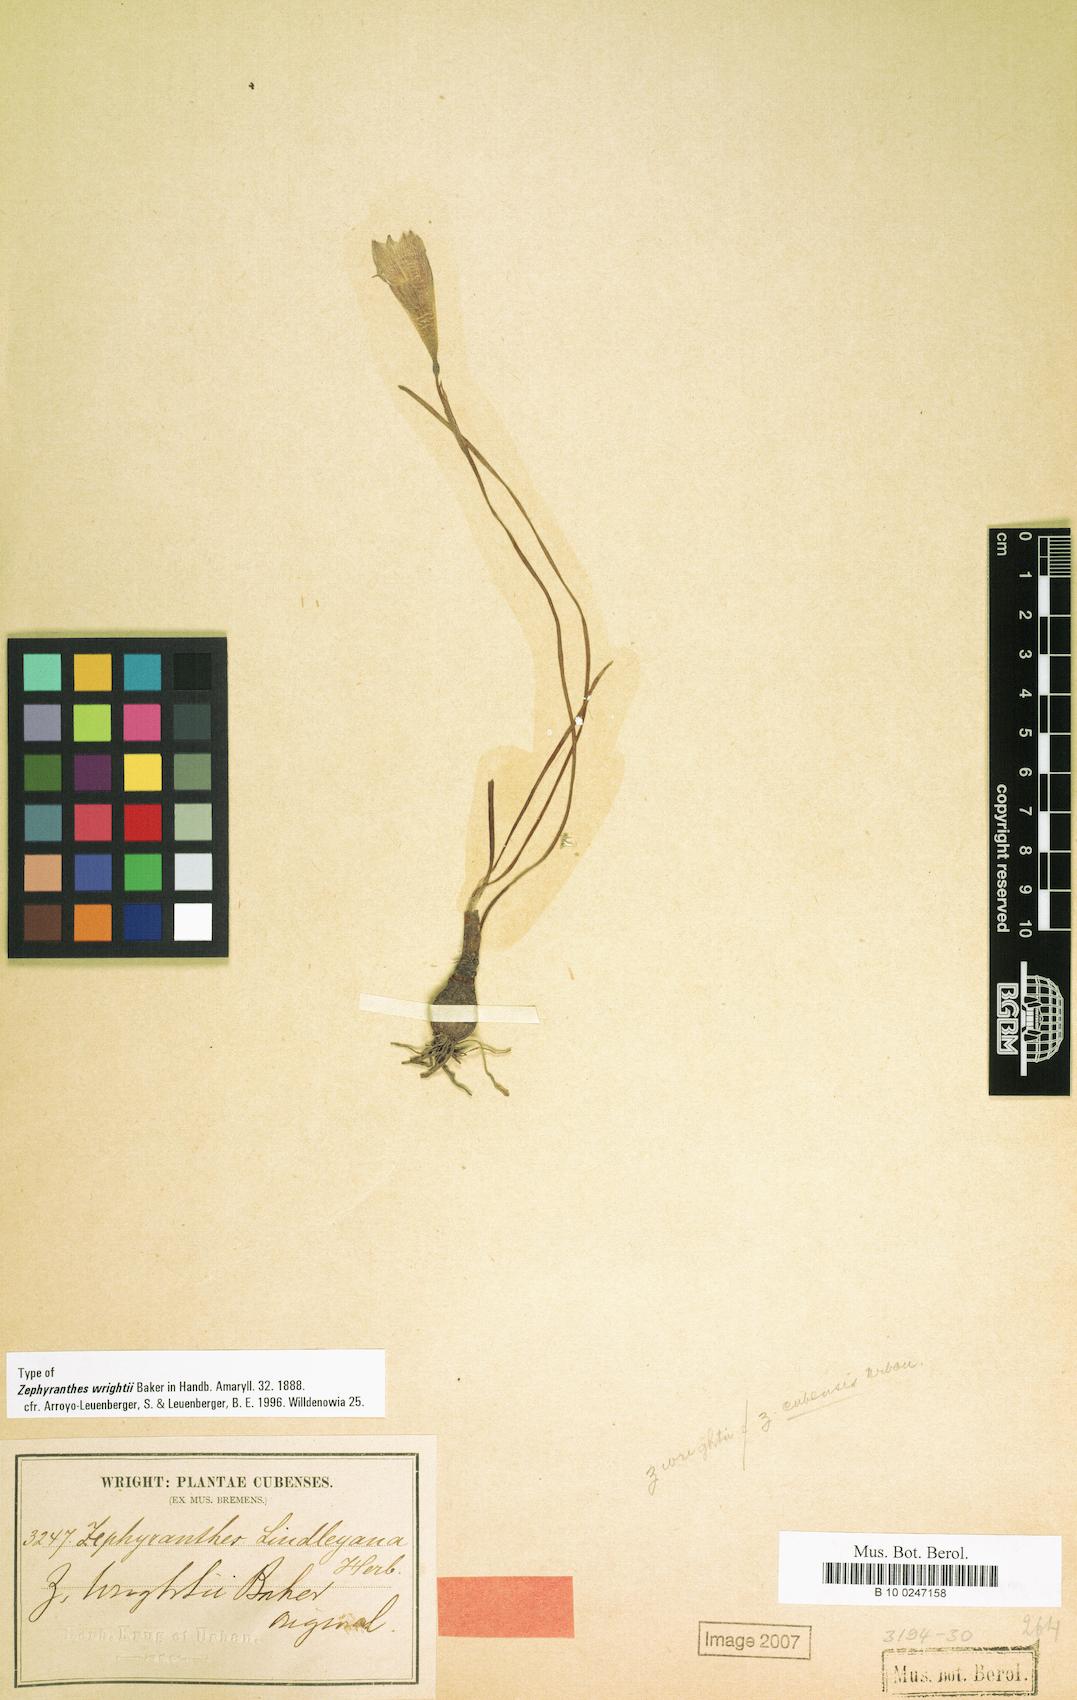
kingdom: Plantae
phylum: Tracheophyta
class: Liliopsida
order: Asparagales
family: Amaryllidaceae
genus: Zephyranthes
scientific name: Zephyranthes wrightii
